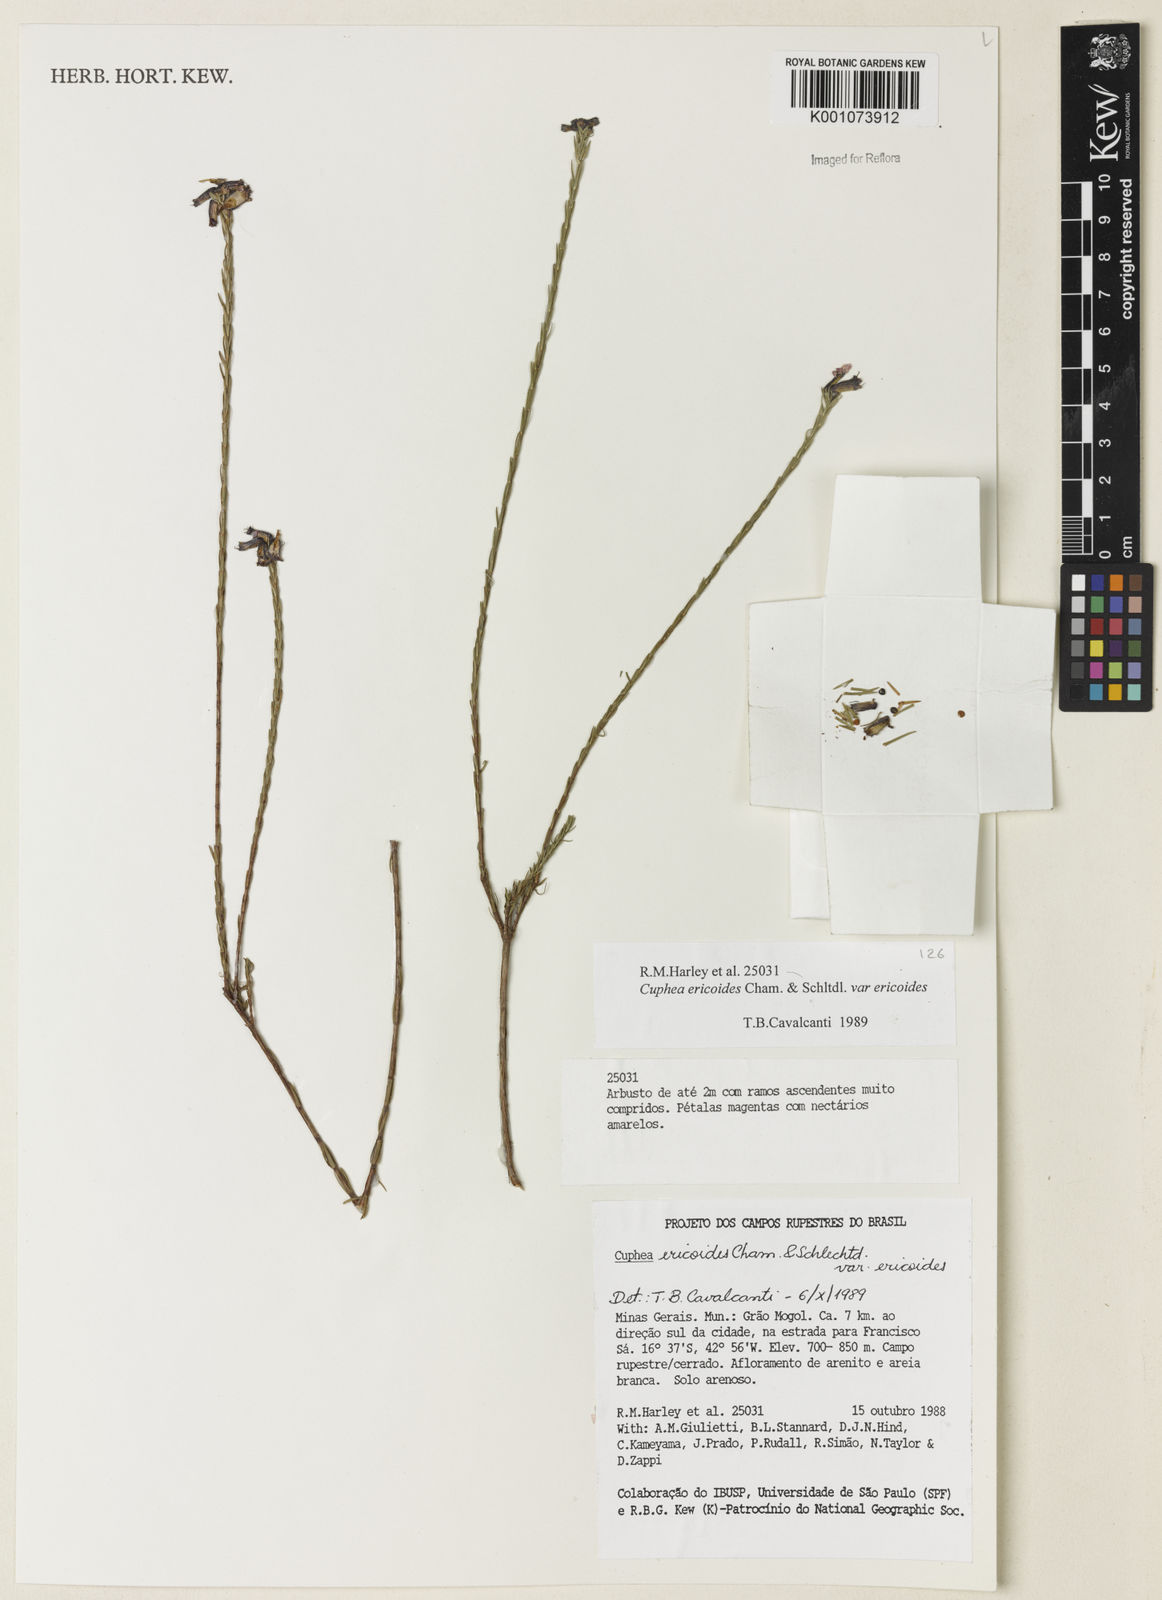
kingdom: Plantae
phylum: Tracheophyta
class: Magnoliopsida
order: Myrtales
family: Lythraceae
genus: Cuphea
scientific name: Cuphea ericoides
